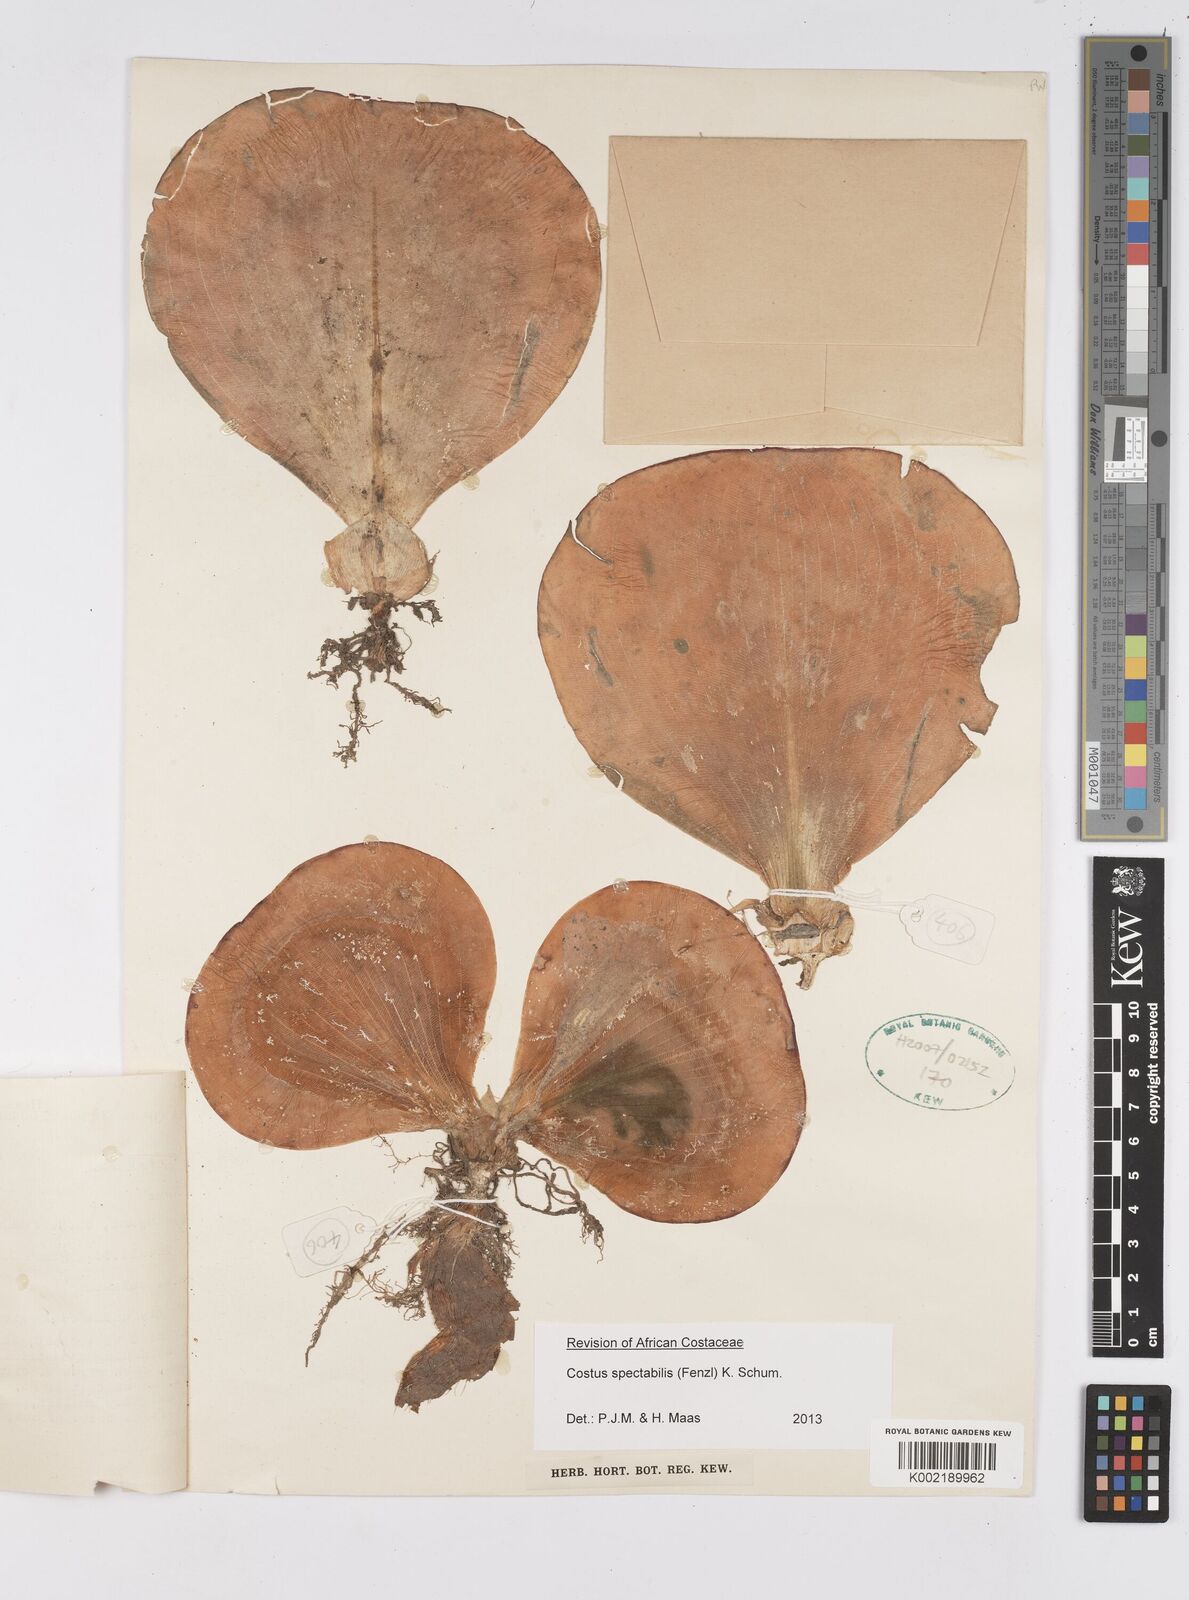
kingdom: Plantae
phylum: Tracheophyta
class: Liliopsida
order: Zingiberales
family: Costaceae
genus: Costus
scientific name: Costus spectabilis
